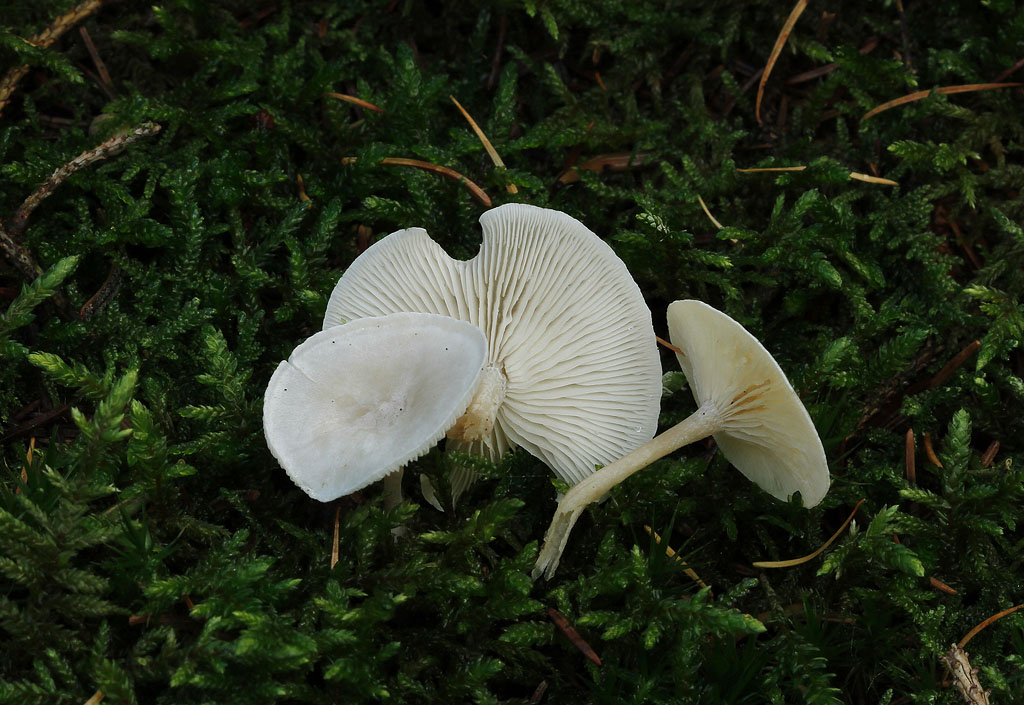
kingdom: Fungi
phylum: Basidiomycota
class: Agaricomycetes
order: Agaricales
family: Tricholomataceae
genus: Leucocybe
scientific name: Leucocybe candicans
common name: kridt-tragthat
